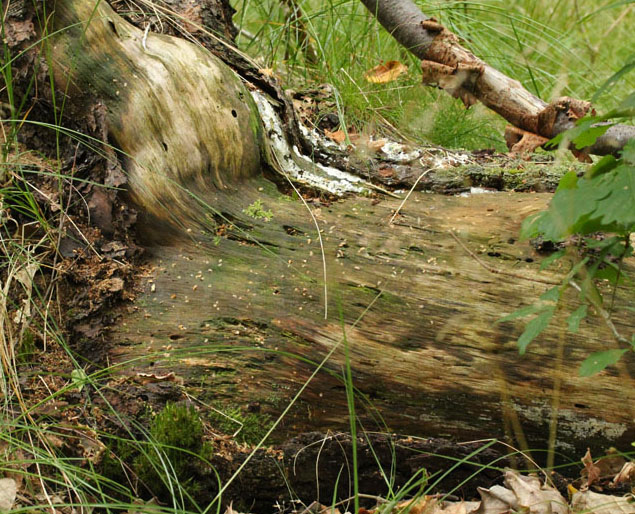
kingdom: Protozoa
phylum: Mycetozoa
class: Protosteliomycetes
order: Ceratiomyxales
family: Ceratiomyxaceae
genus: Ceratiomyxa
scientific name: Ceratiomyxa fruticulosa
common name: Honeycomb coral slime mold
